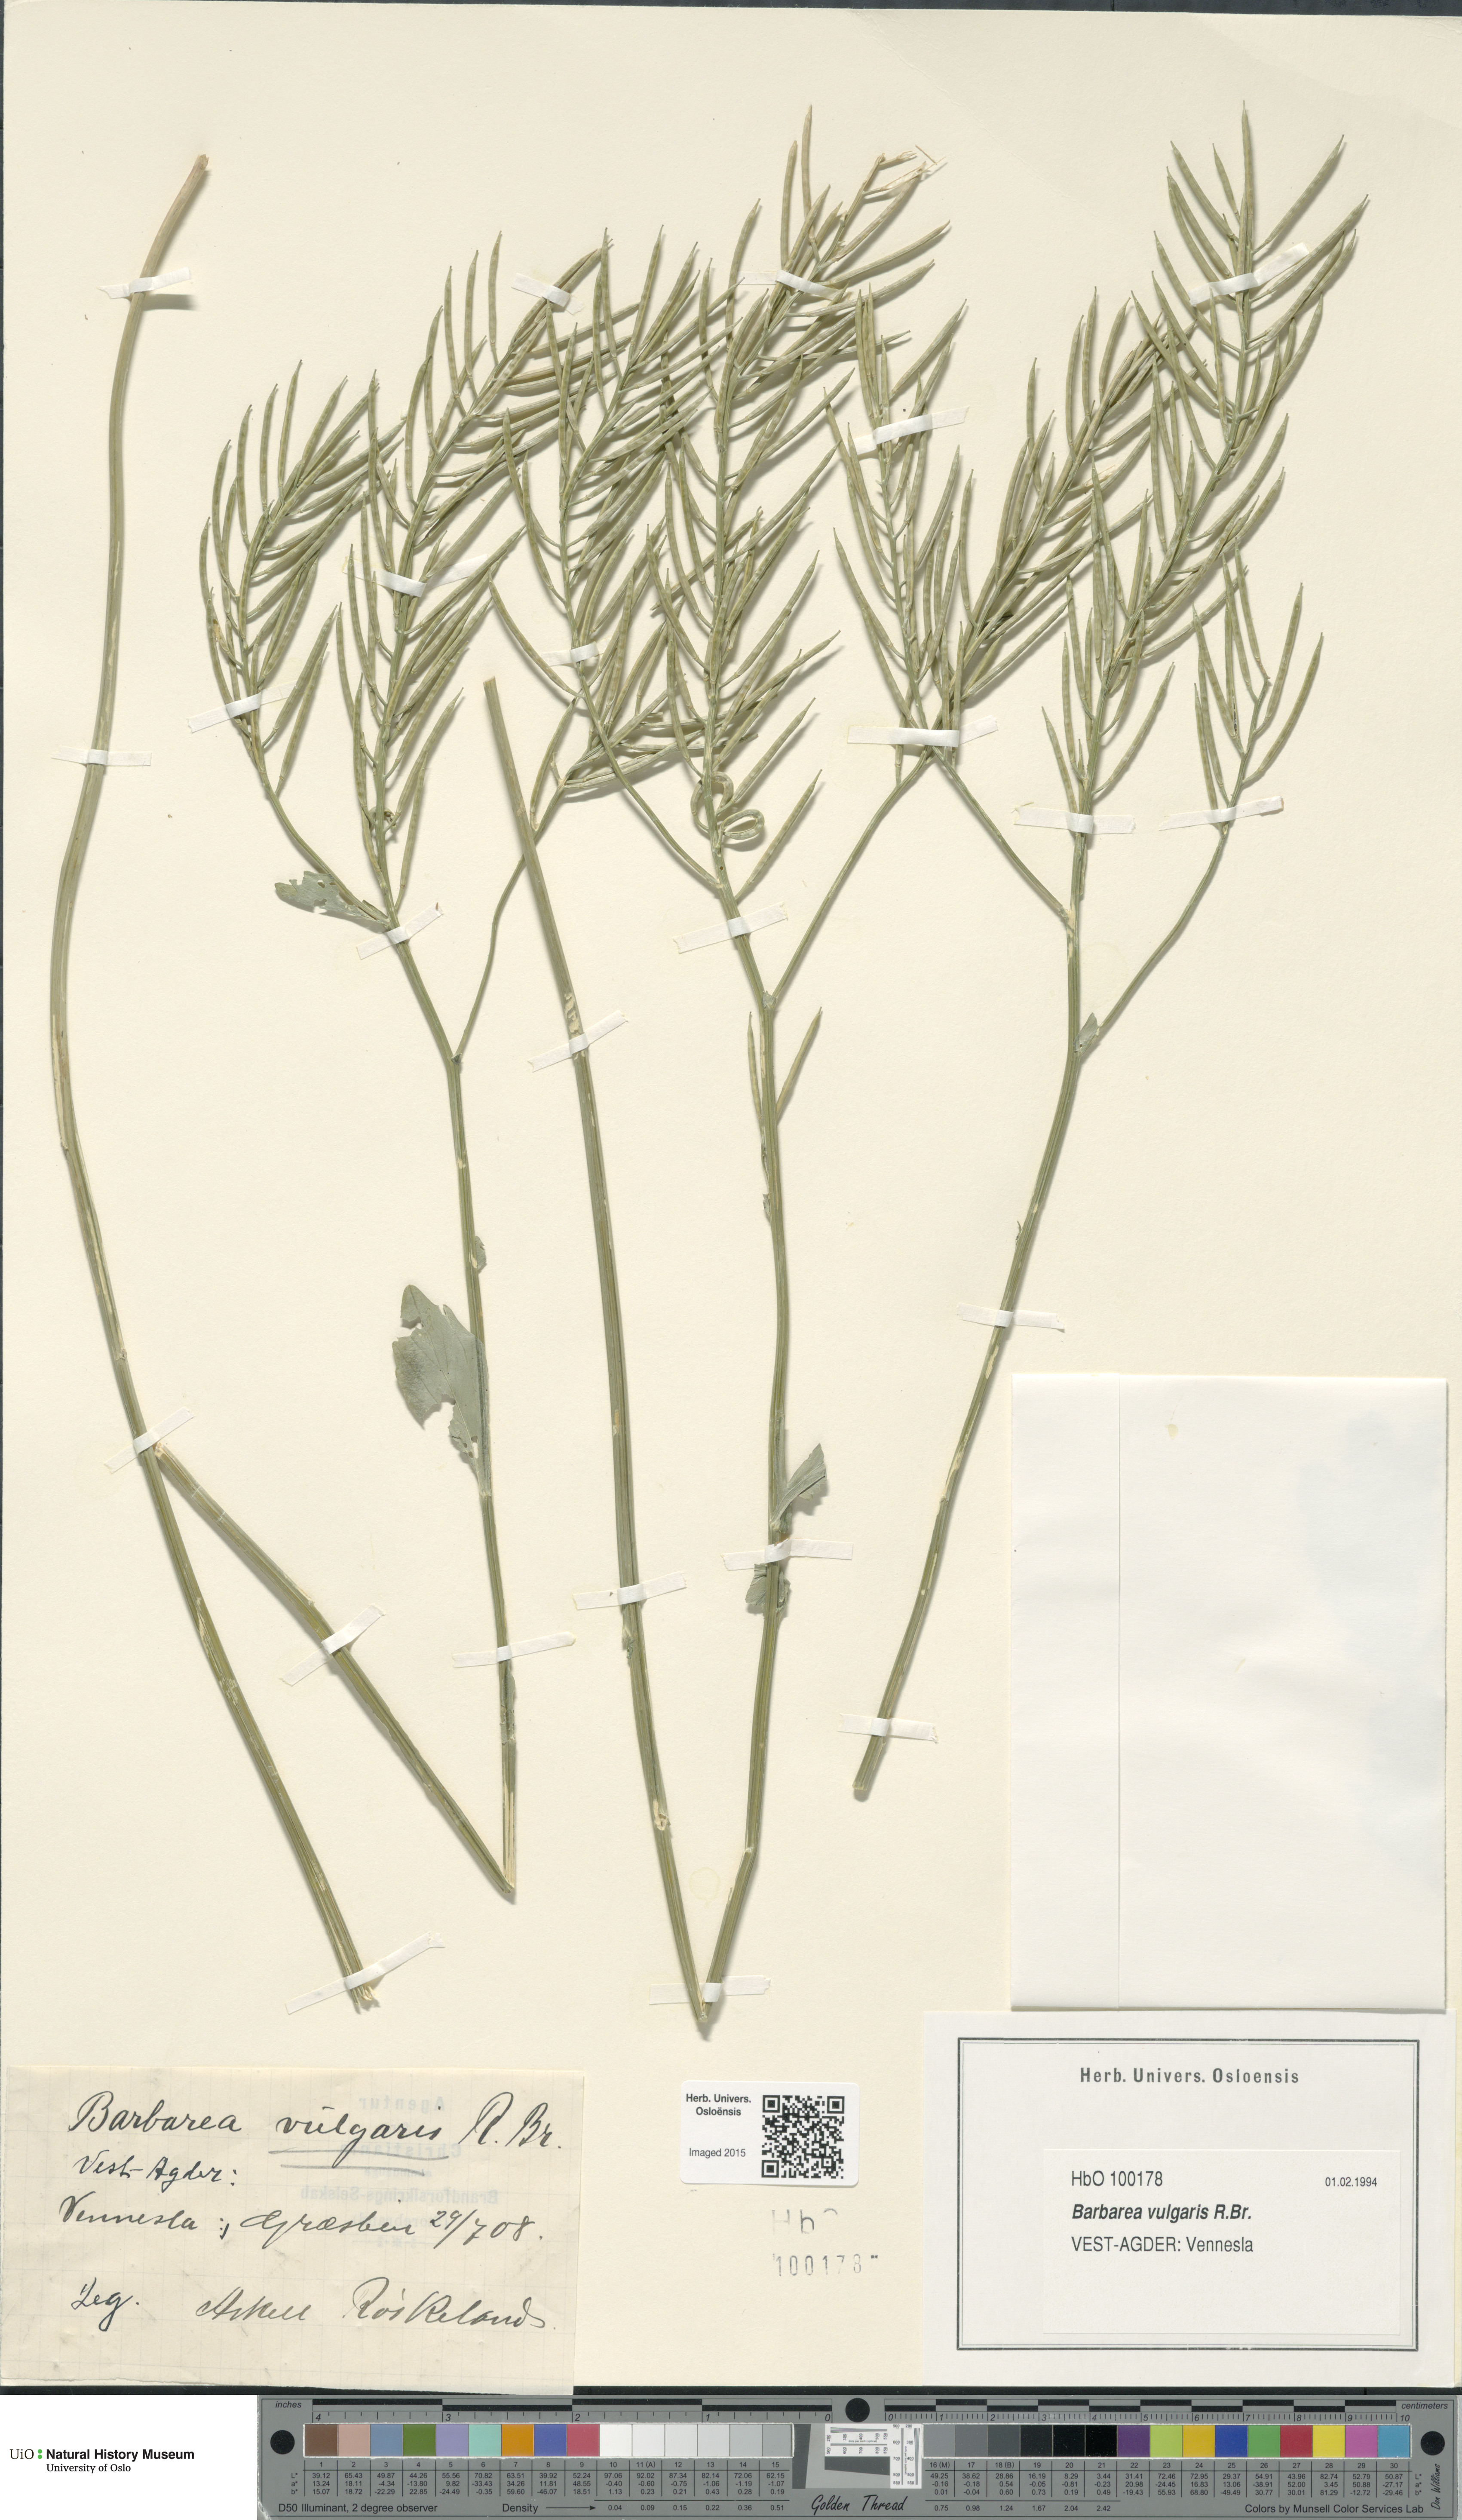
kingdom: Plantae
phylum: Tracheophyta
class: Magnoliopsida
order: Brassicales
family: Brassicaceae
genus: Barbarea
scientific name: Barbarea vulgaris
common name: Cressy-greens
